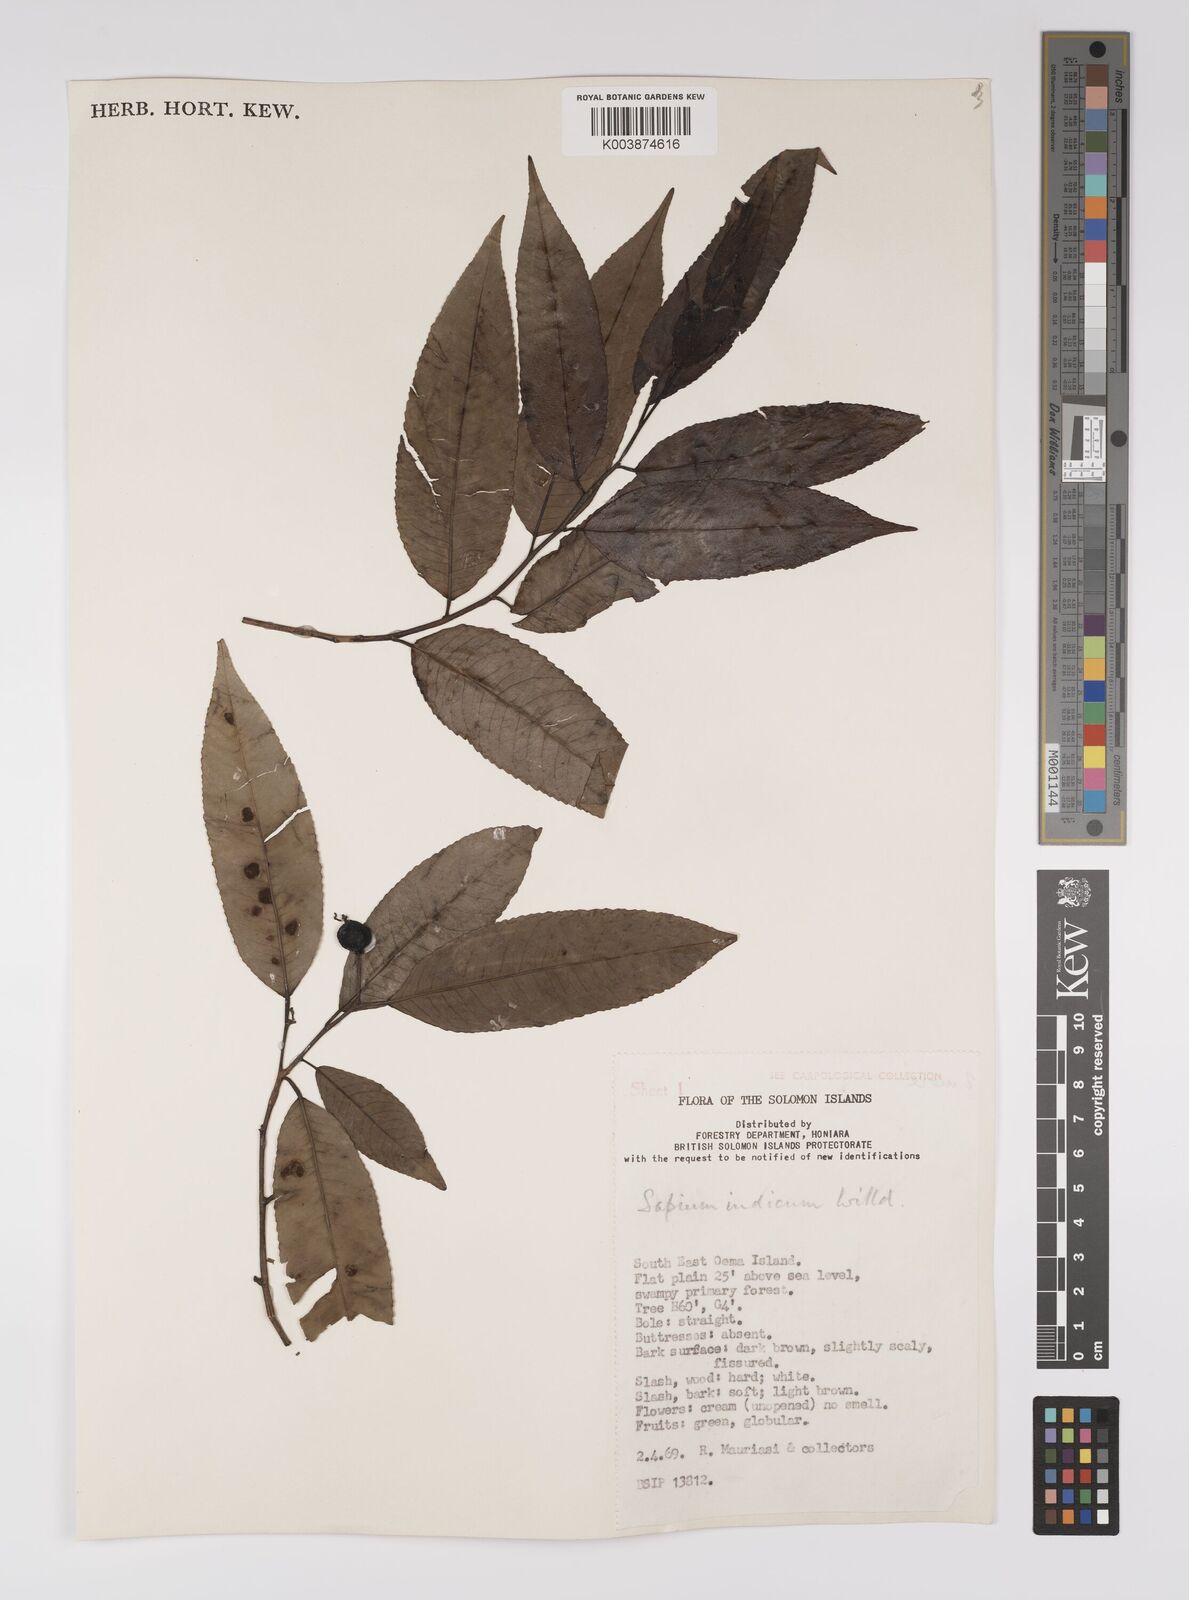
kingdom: Plantae
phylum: Tracheophyta
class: Magnoliopsida
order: Malpighiales
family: Euphorbiaceae
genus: Shirakiopsis
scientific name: Shirakiopsis indica
